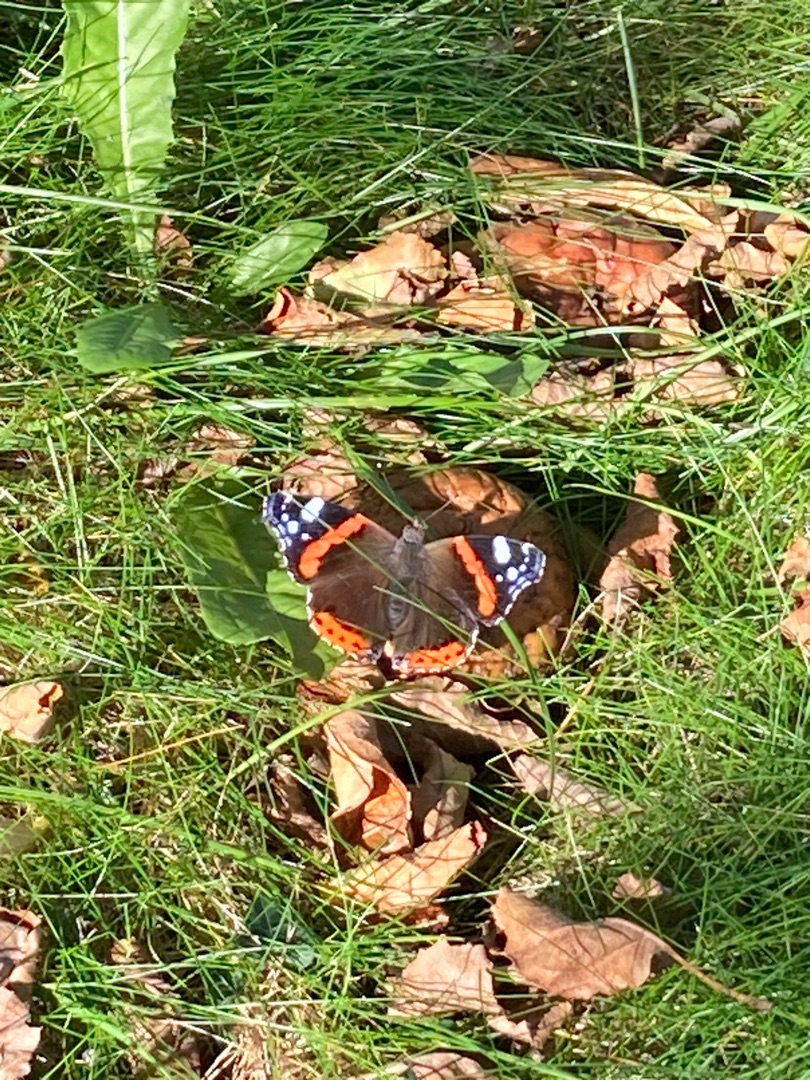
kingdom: Animalia
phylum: Arthropoda
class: Insecta
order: Lepidoptera
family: Nymphalidae
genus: Vanessa
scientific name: Vanessa atalanta
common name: Admiral
